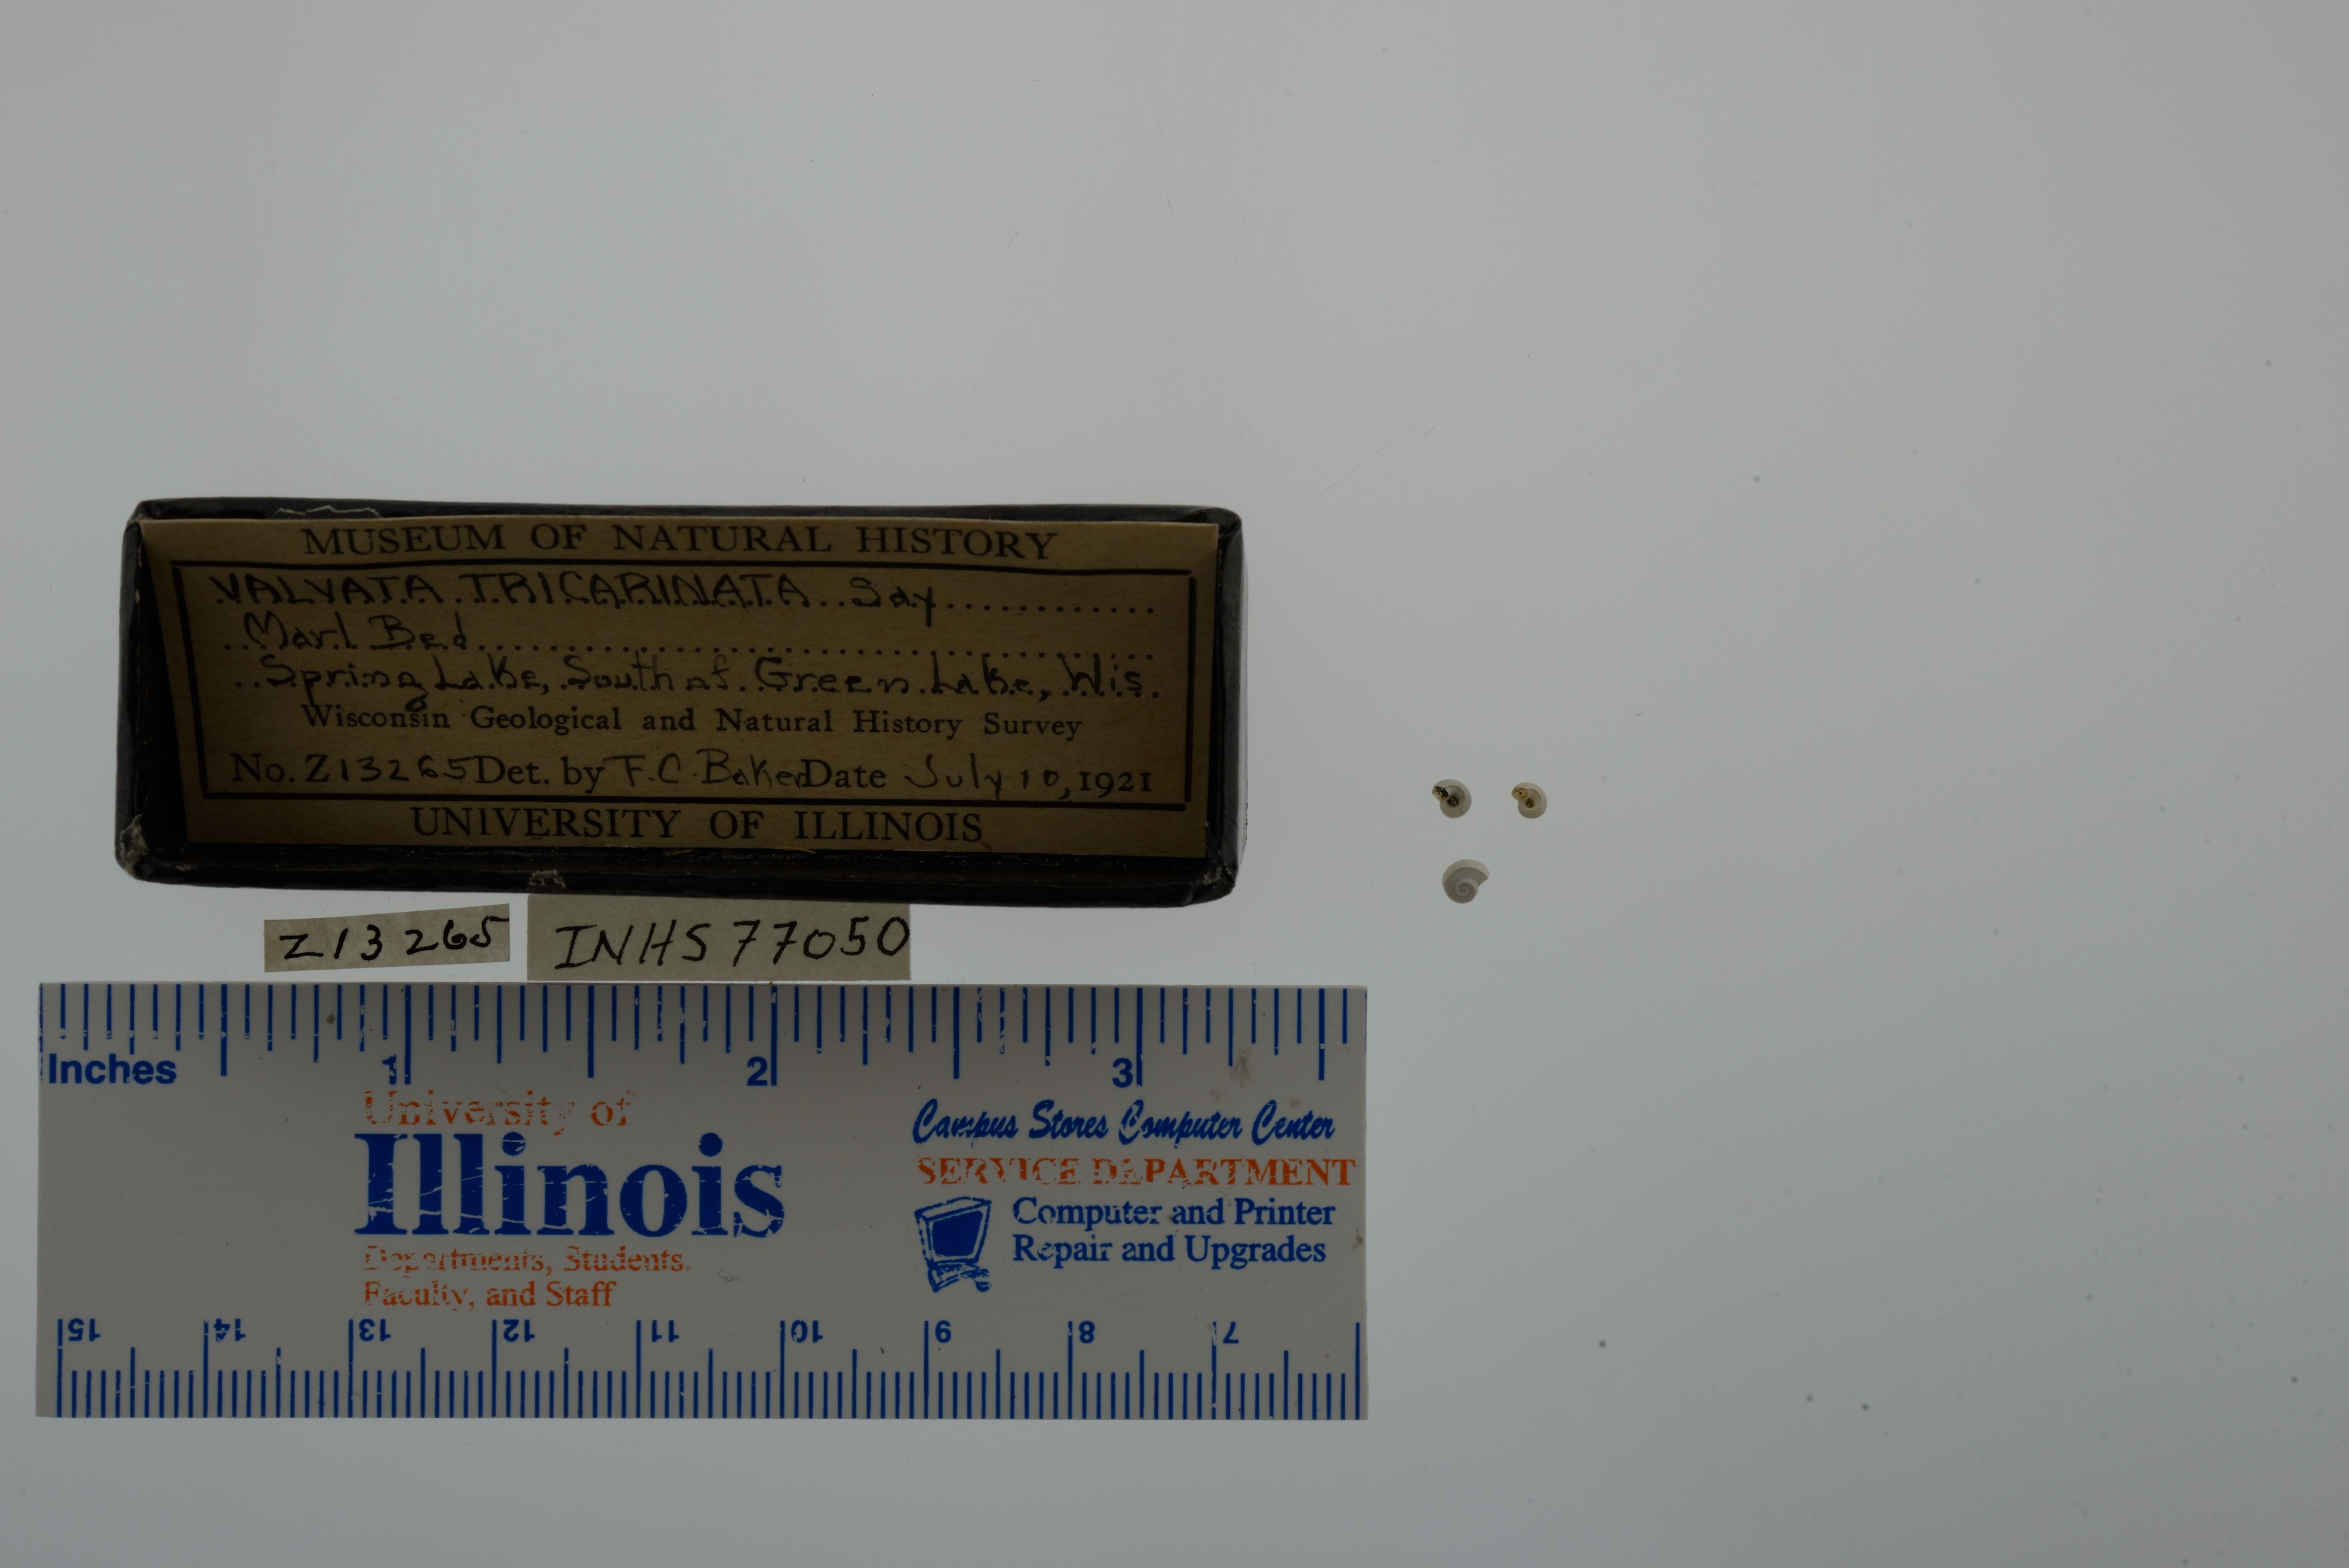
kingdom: Animalia
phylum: Mollusca
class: Gastropoda
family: Valvatidae
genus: Valvata
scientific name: Valvata tricarinata
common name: Three-ridge valvata
